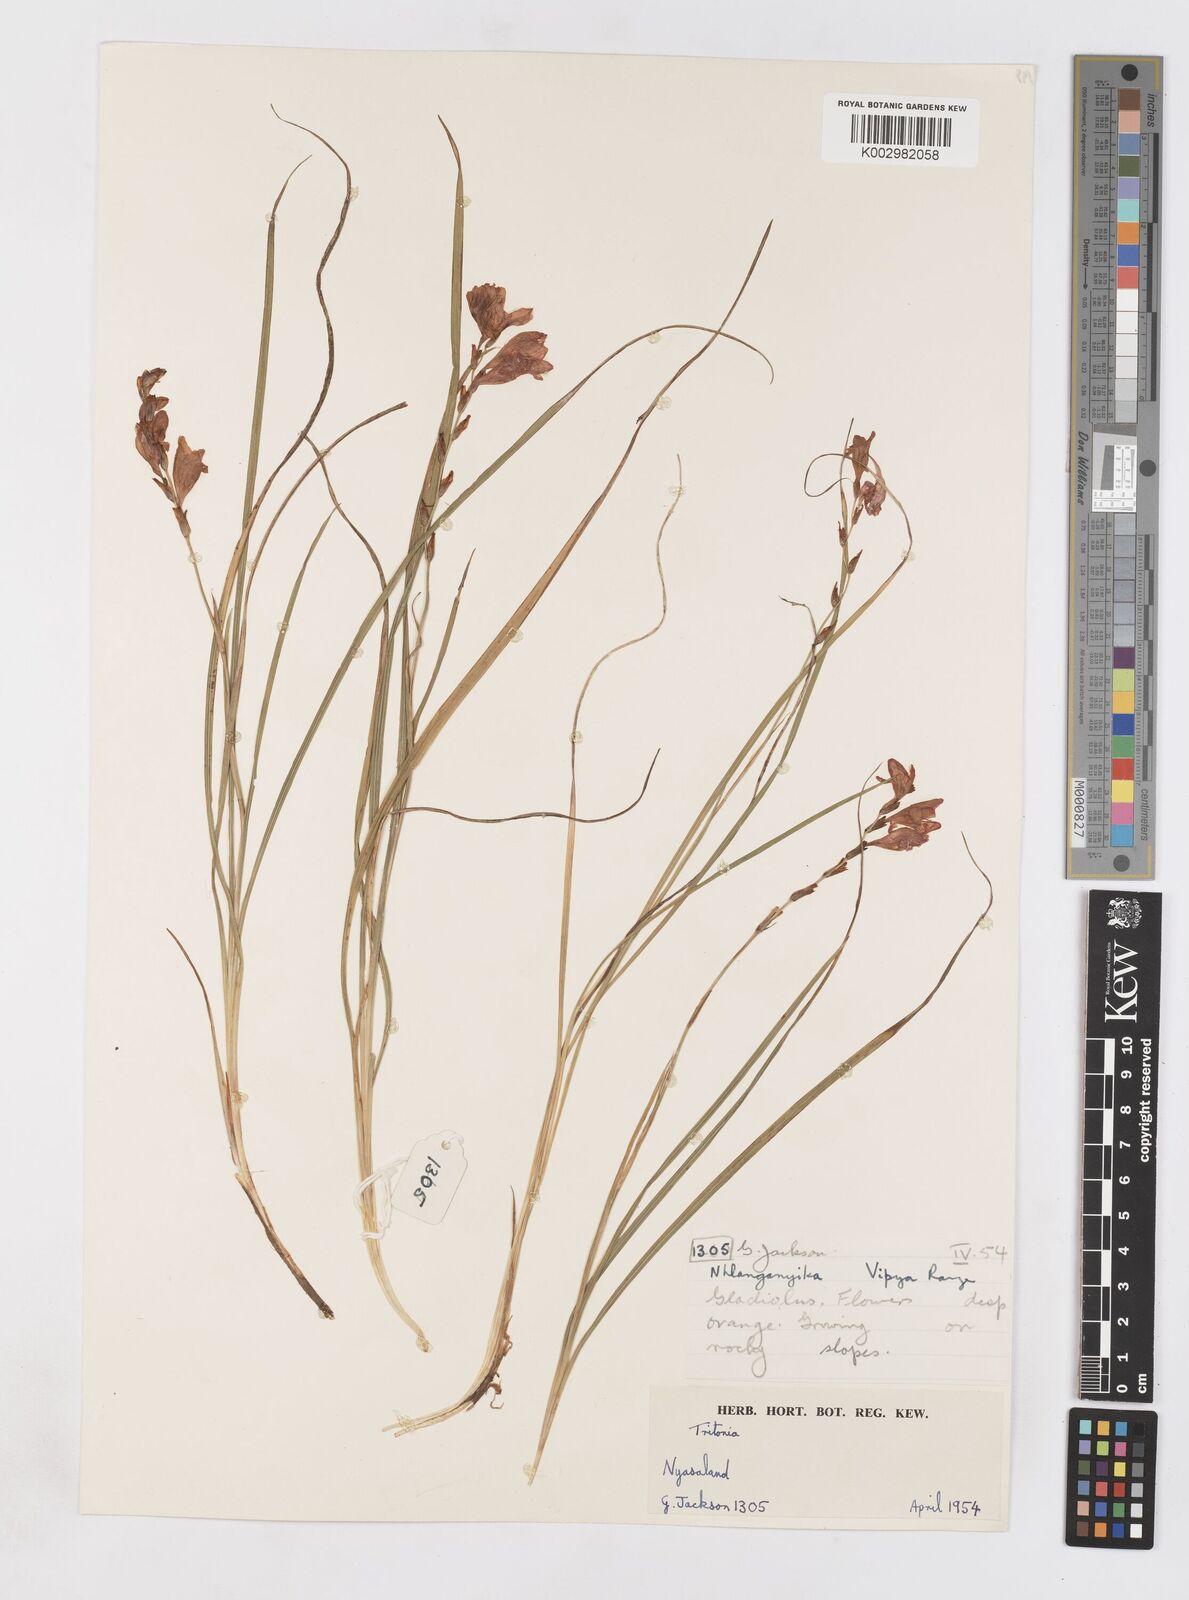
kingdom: Plantae
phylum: Tracheophyta
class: Liliopsida
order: Asparagales
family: Iridaceae
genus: Tritonia
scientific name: Tritonia laxifolia
